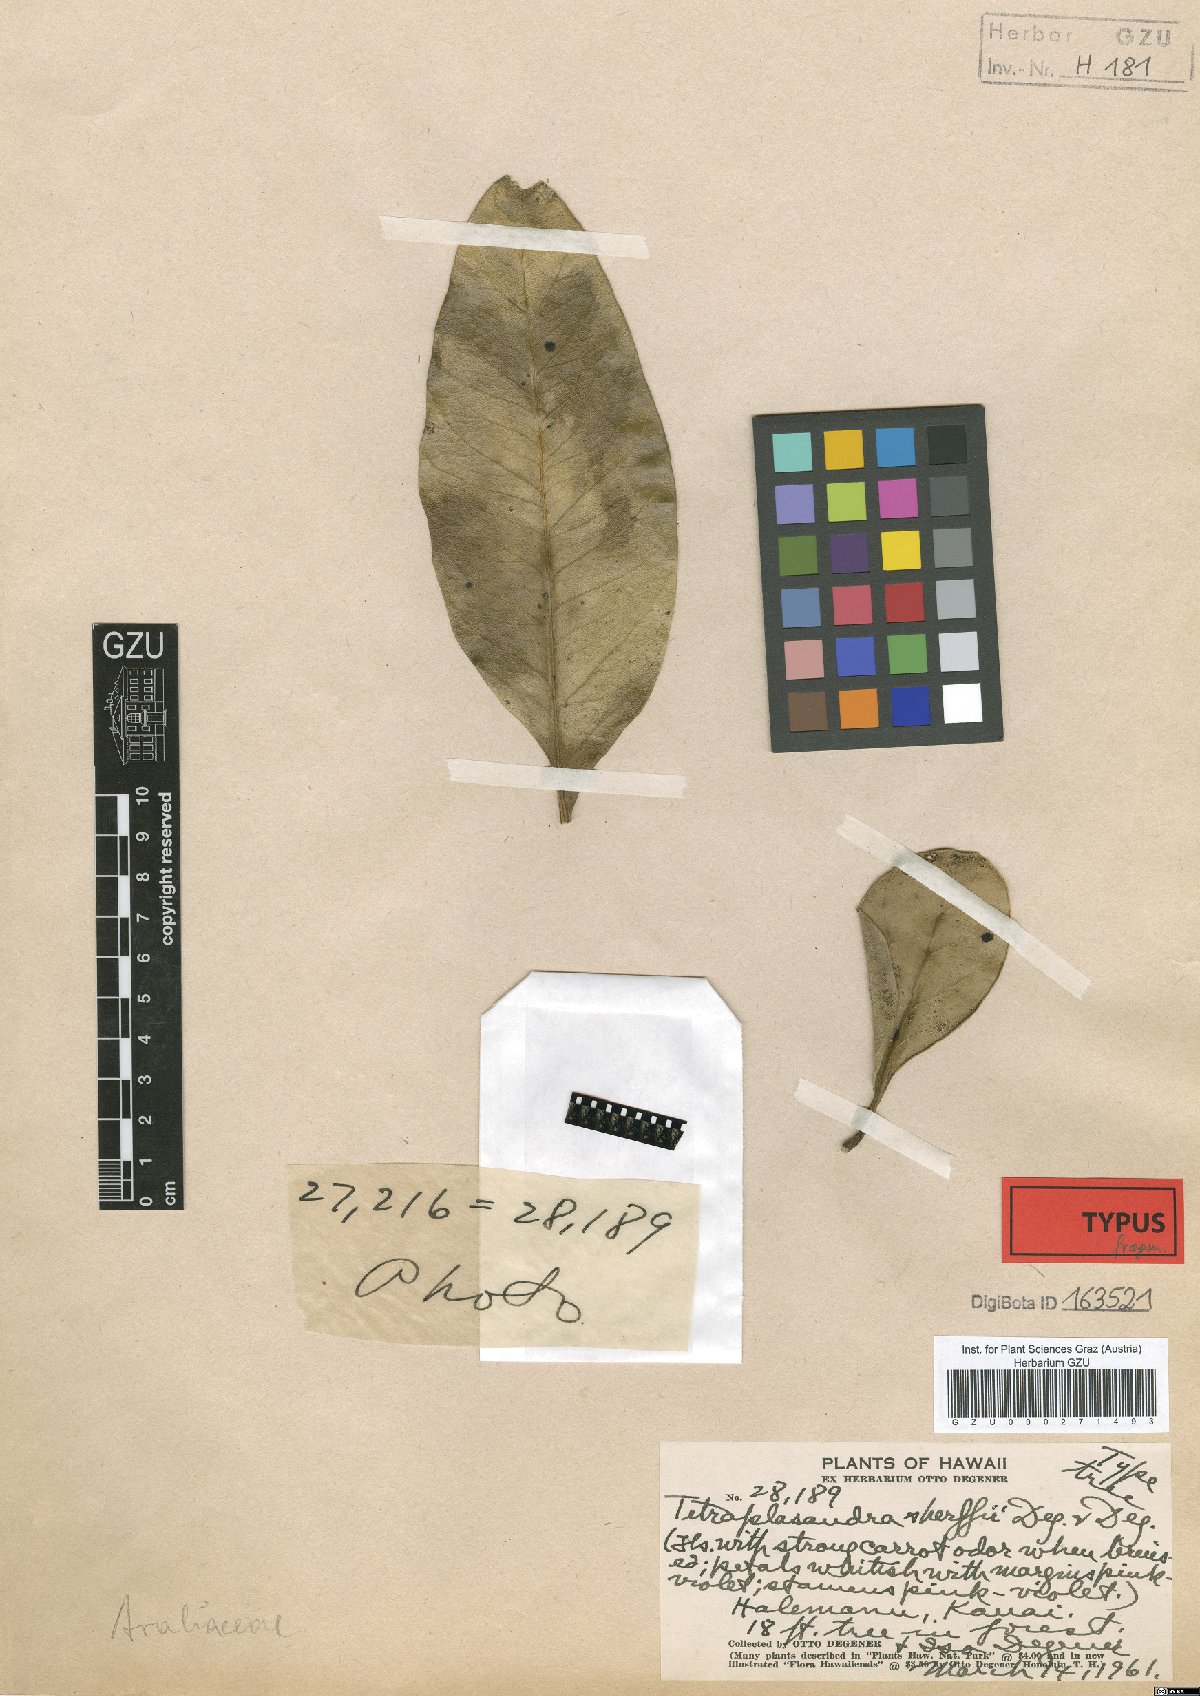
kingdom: Plantae
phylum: Tracheophyta
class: Magnoliopsida
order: Apiales
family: Araliaceae
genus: Polyscias
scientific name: Polyscias waimeae
